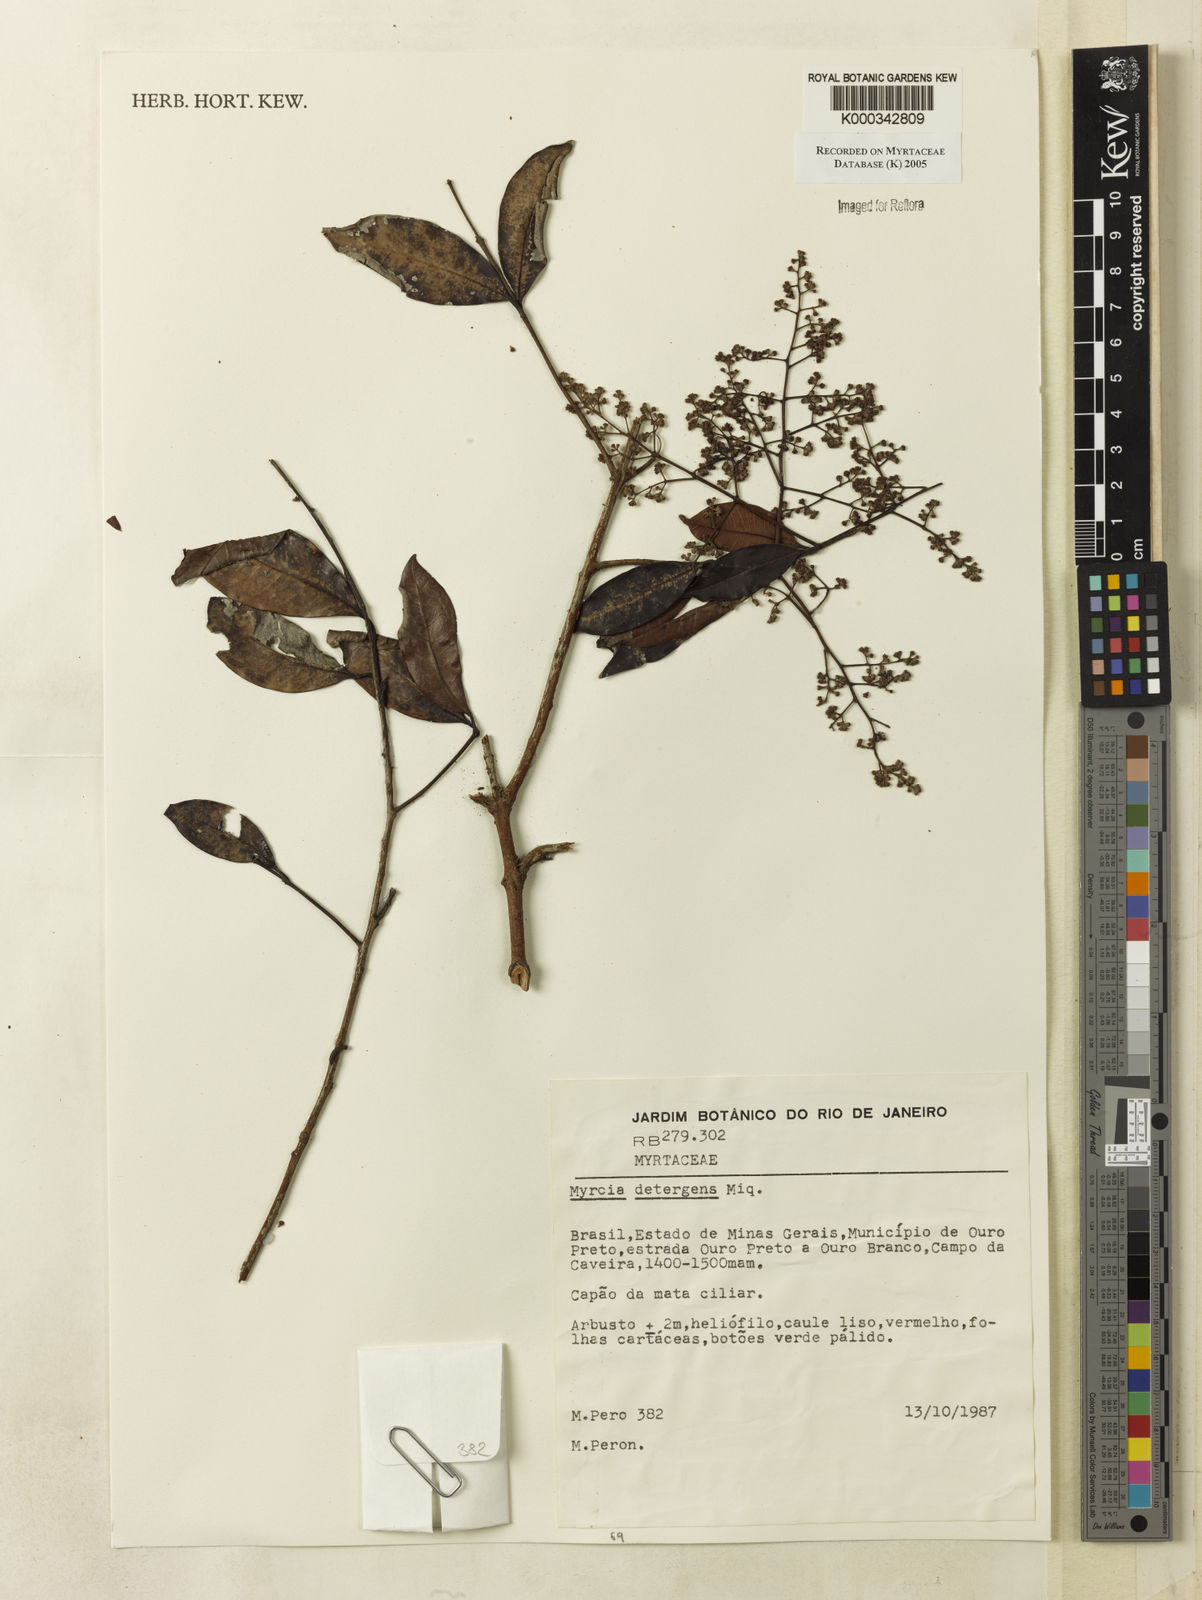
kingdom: Plantae
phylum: Tracheophyta
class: Magnoliopsida
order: Myrtales
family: Myrtaceae
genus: Myrcia
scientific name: Myrcia amazonica
